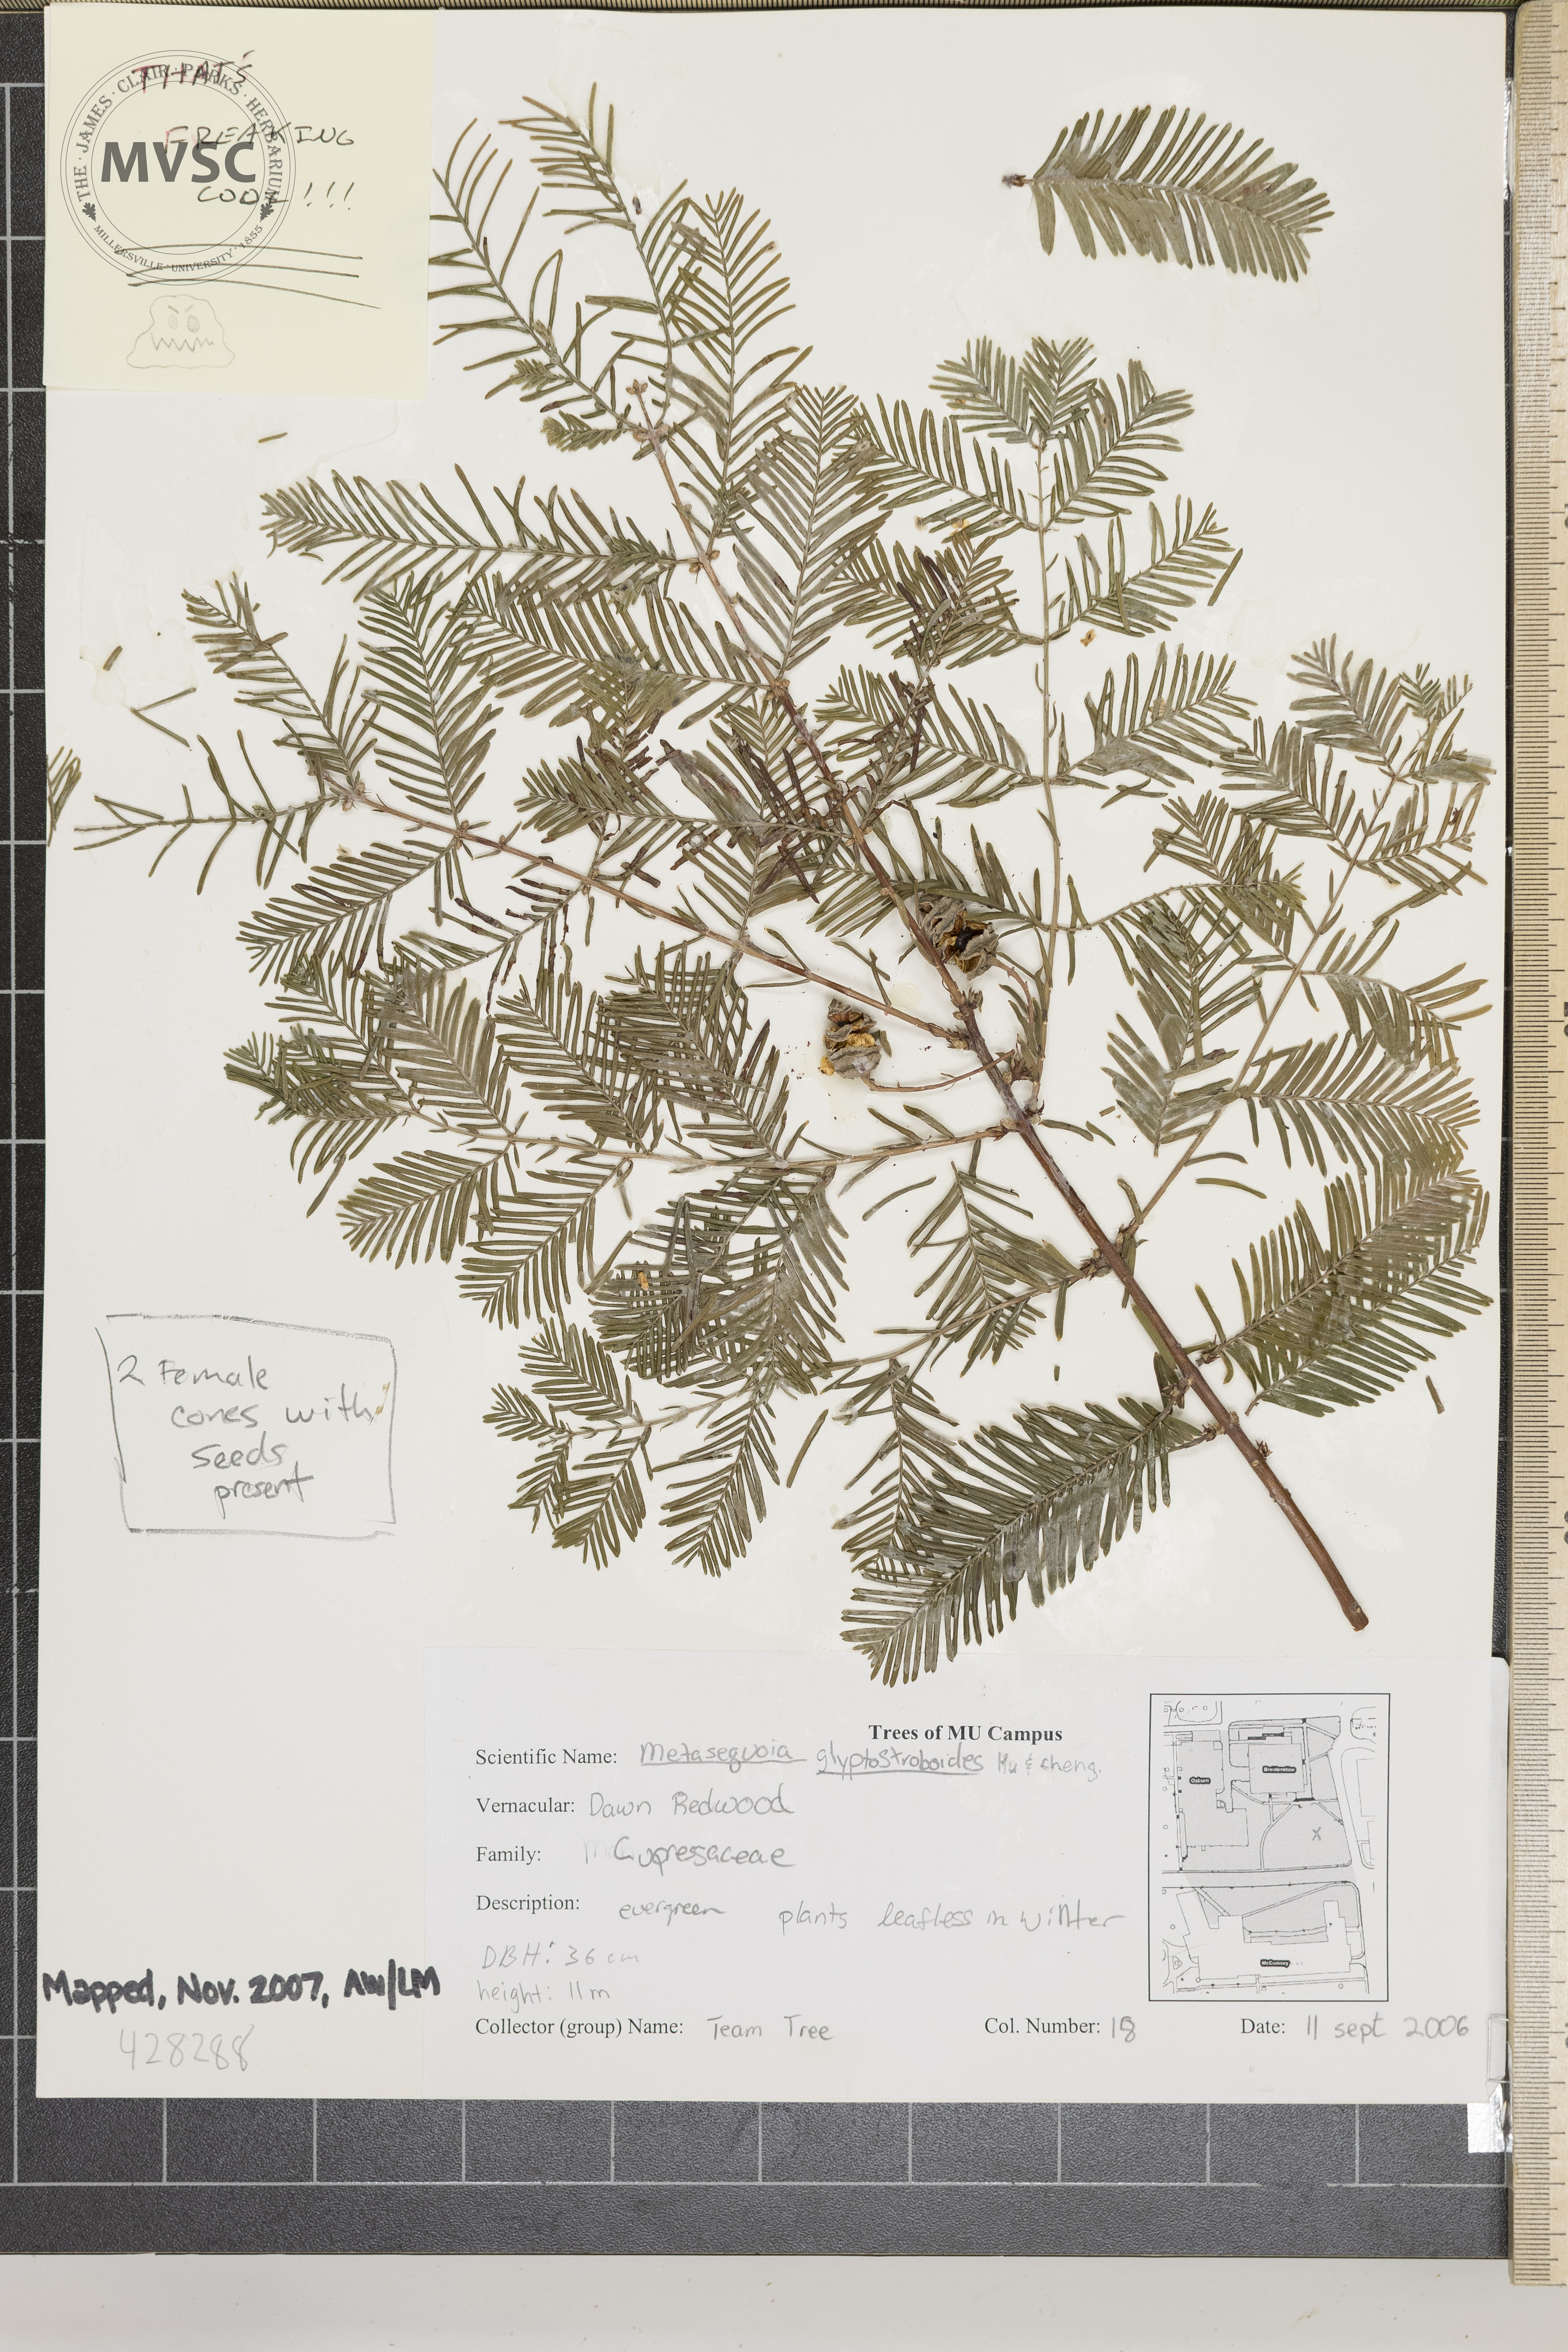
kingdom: Plantae
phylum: Tracheophyta
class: Pinopsida
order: Pinales
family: Cupressaceae
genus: Metasequoia
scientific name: Metasequoia glyptostroboides
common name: Dawn Redwood
